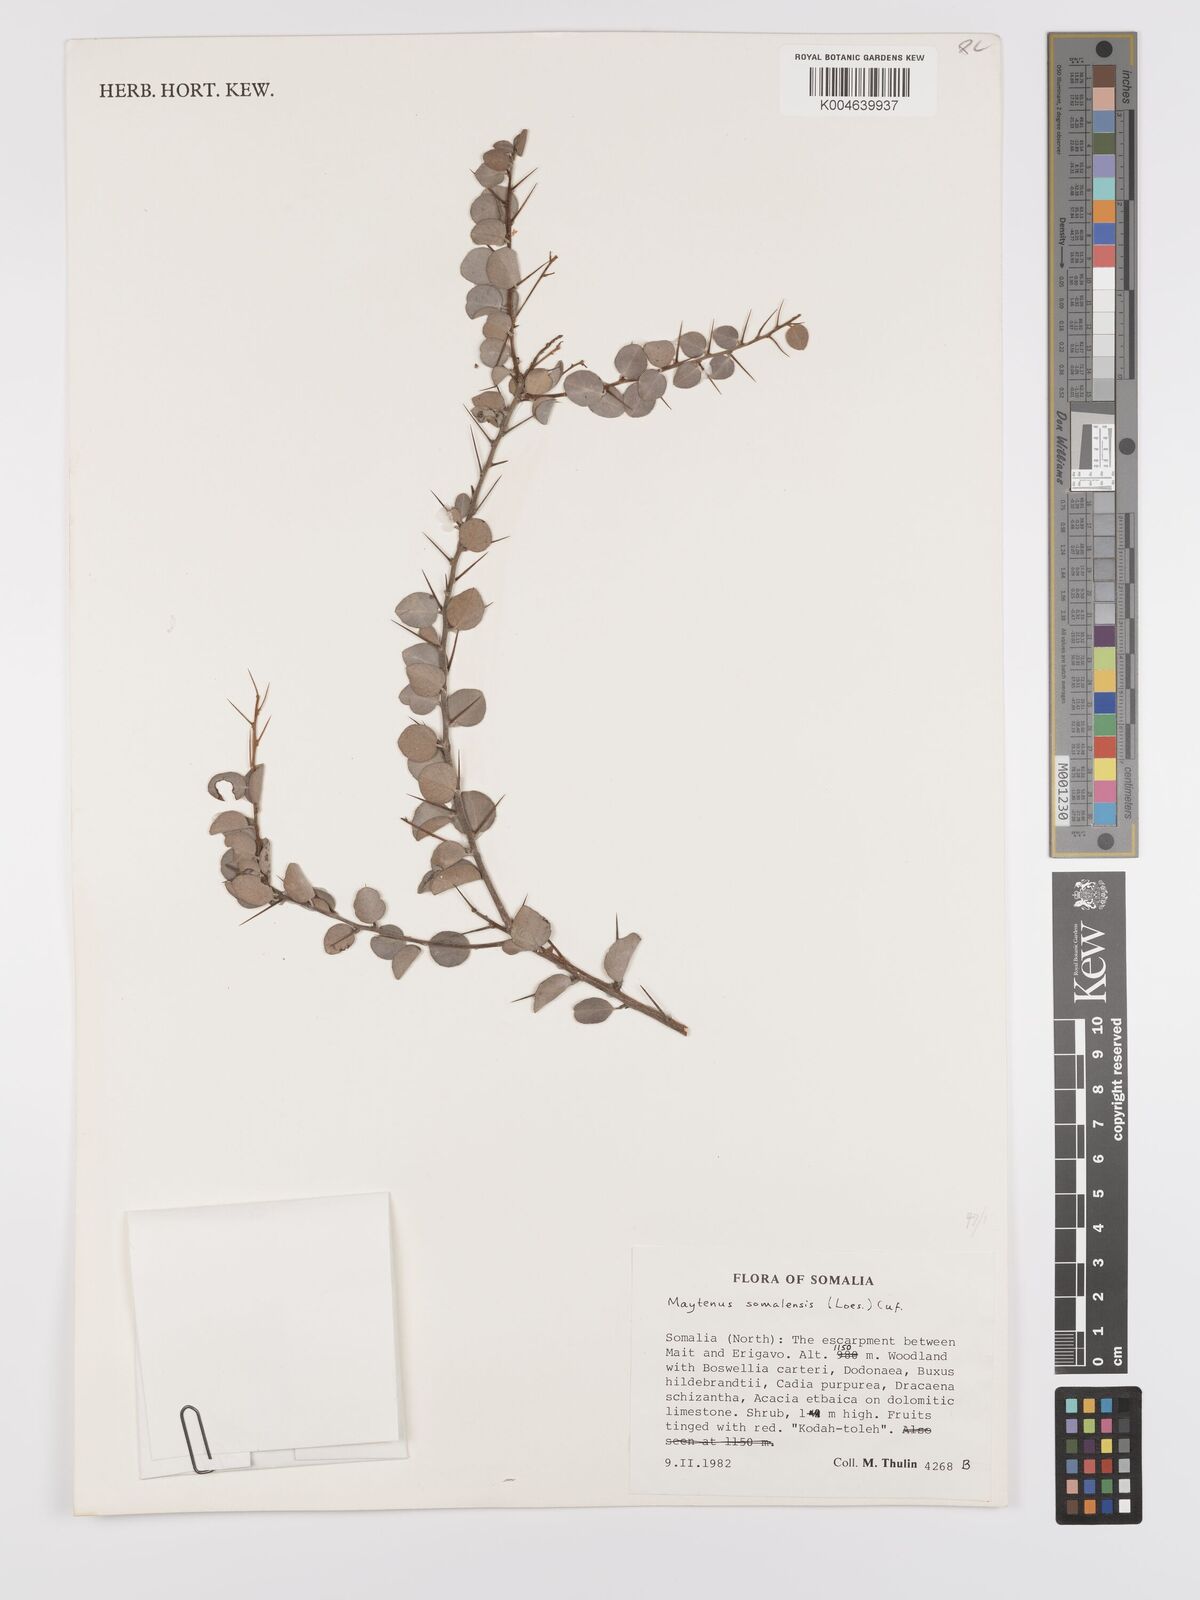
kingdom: Plantae
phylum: Tracheophyta
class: Magnoliopsida
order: Celastrales
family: Celastraceae
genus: Gymnosporia
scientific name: Gymnosporia somalensis
